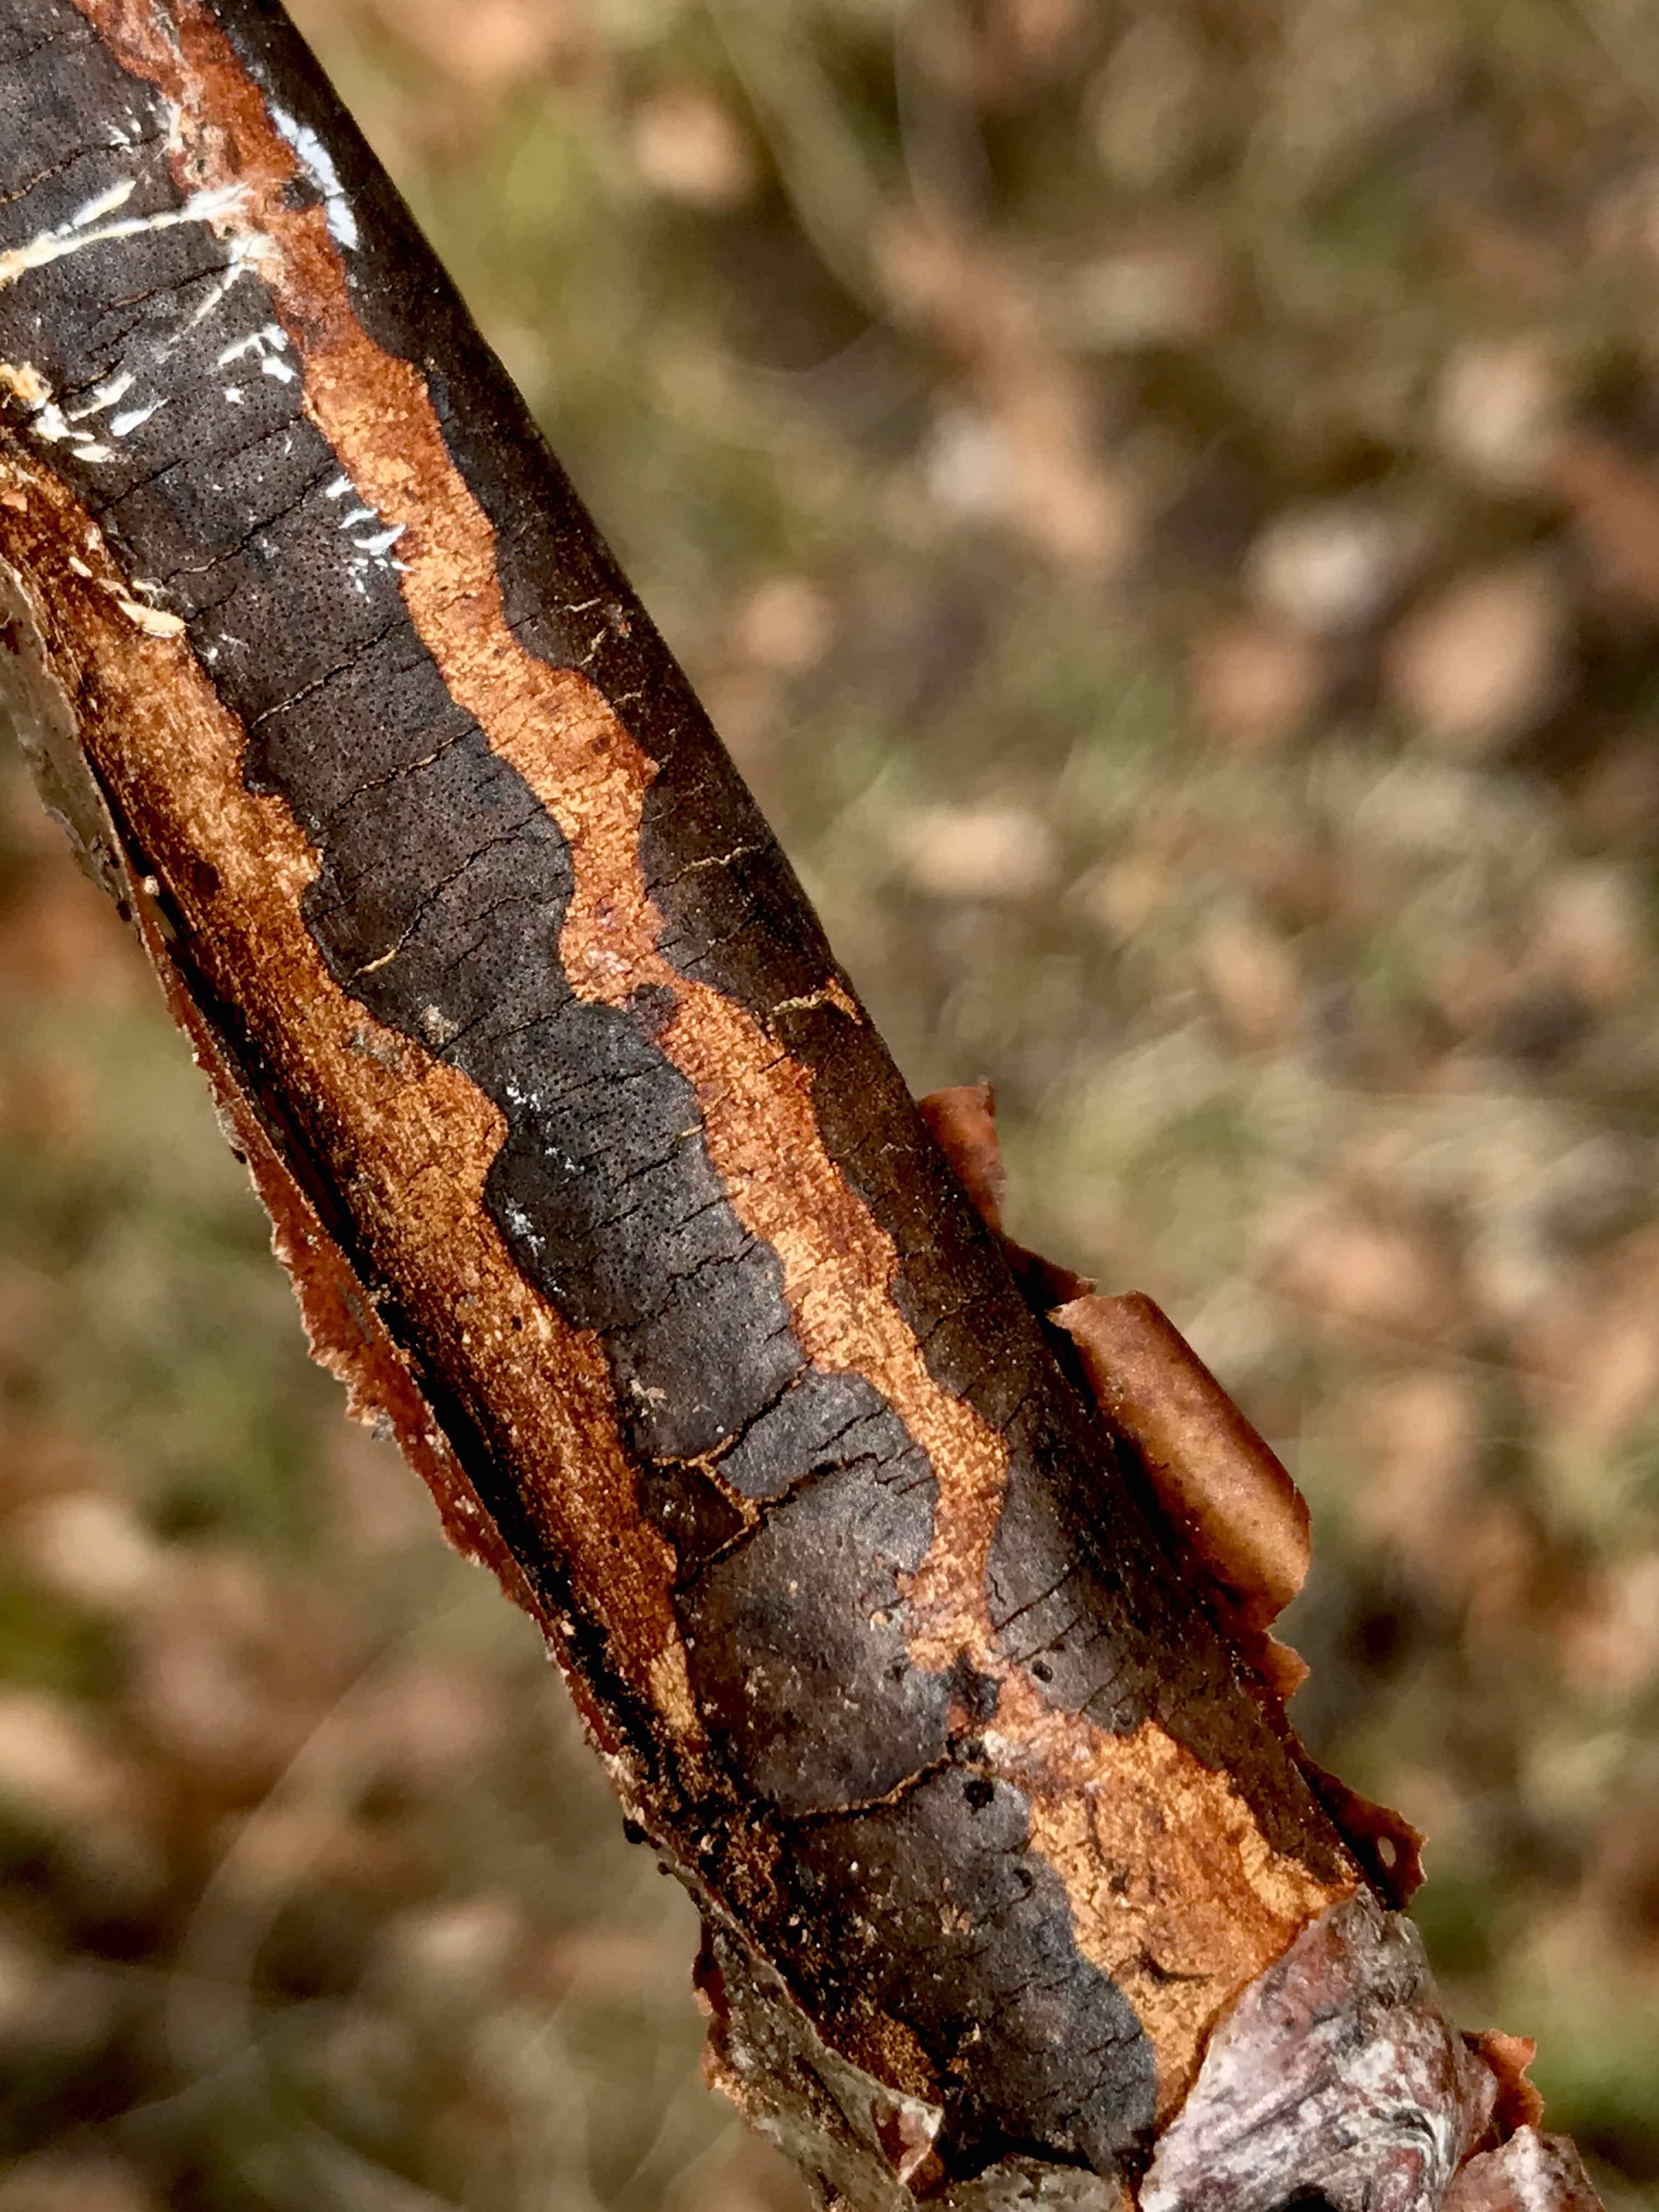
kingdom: Fungi
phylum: Ascomycota
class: Sordariomycetes
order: Xylariales
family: Diatrypaceae
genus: Diatrype
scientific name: Diatrype decorticata
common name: barksprænger-kulskorpe
